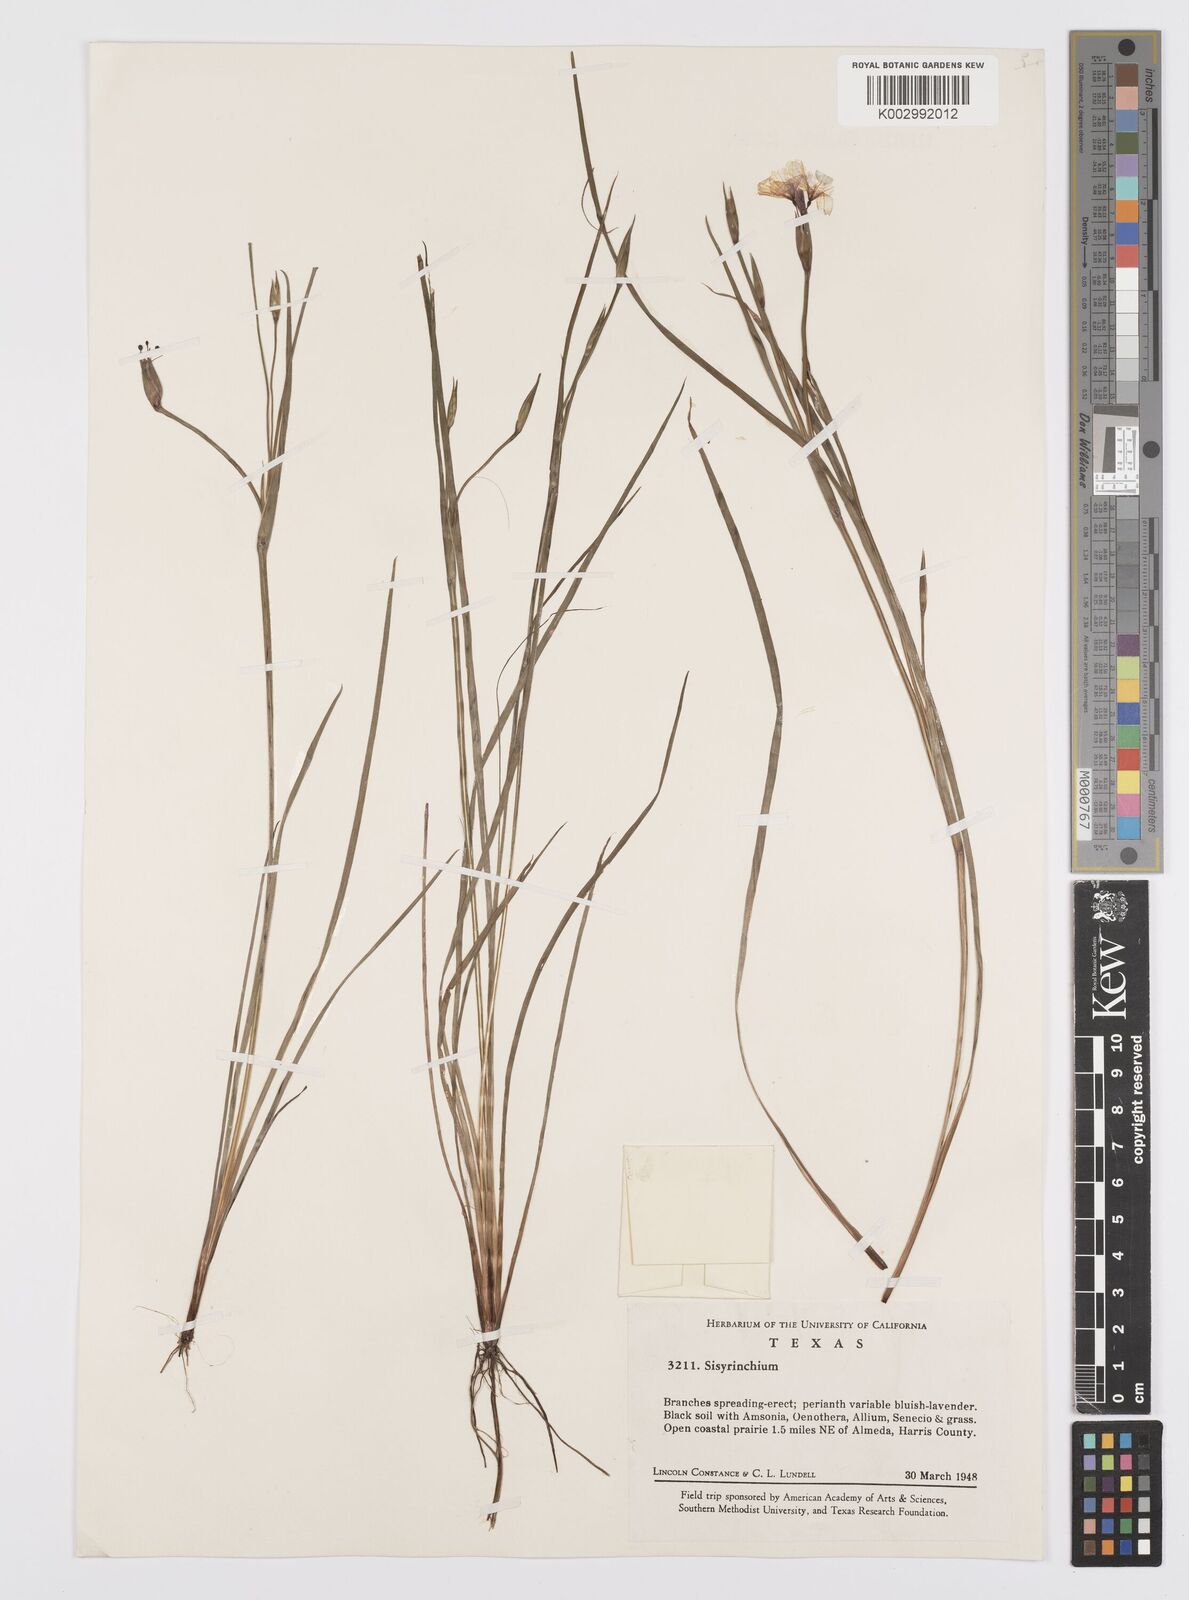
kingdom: Plantae
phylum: Tracheophyta
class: Liliopsida
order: Asparagales
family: Iridaceae
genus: Sisyrinchium
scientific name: Sisyrinchium
